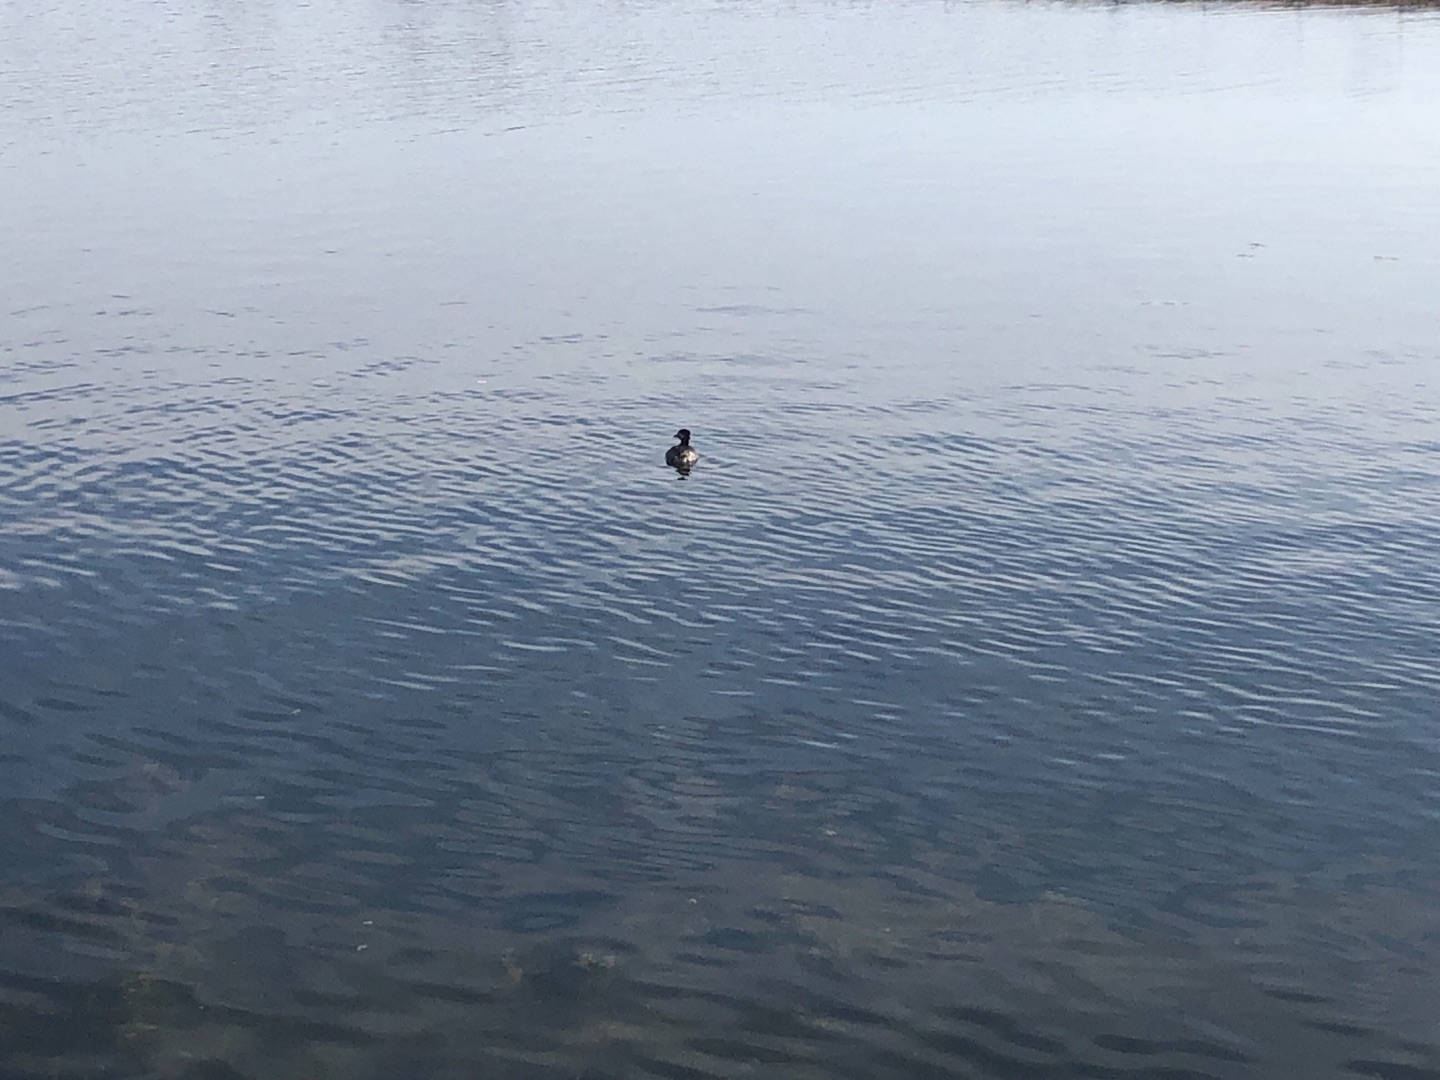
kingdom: Animalia
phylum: Chordata
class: Aves
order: Podicipediformes
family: Podicipedidae
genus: Podiceps
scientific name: Podiceps grisegena
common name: Gråstrubet lappedykker
